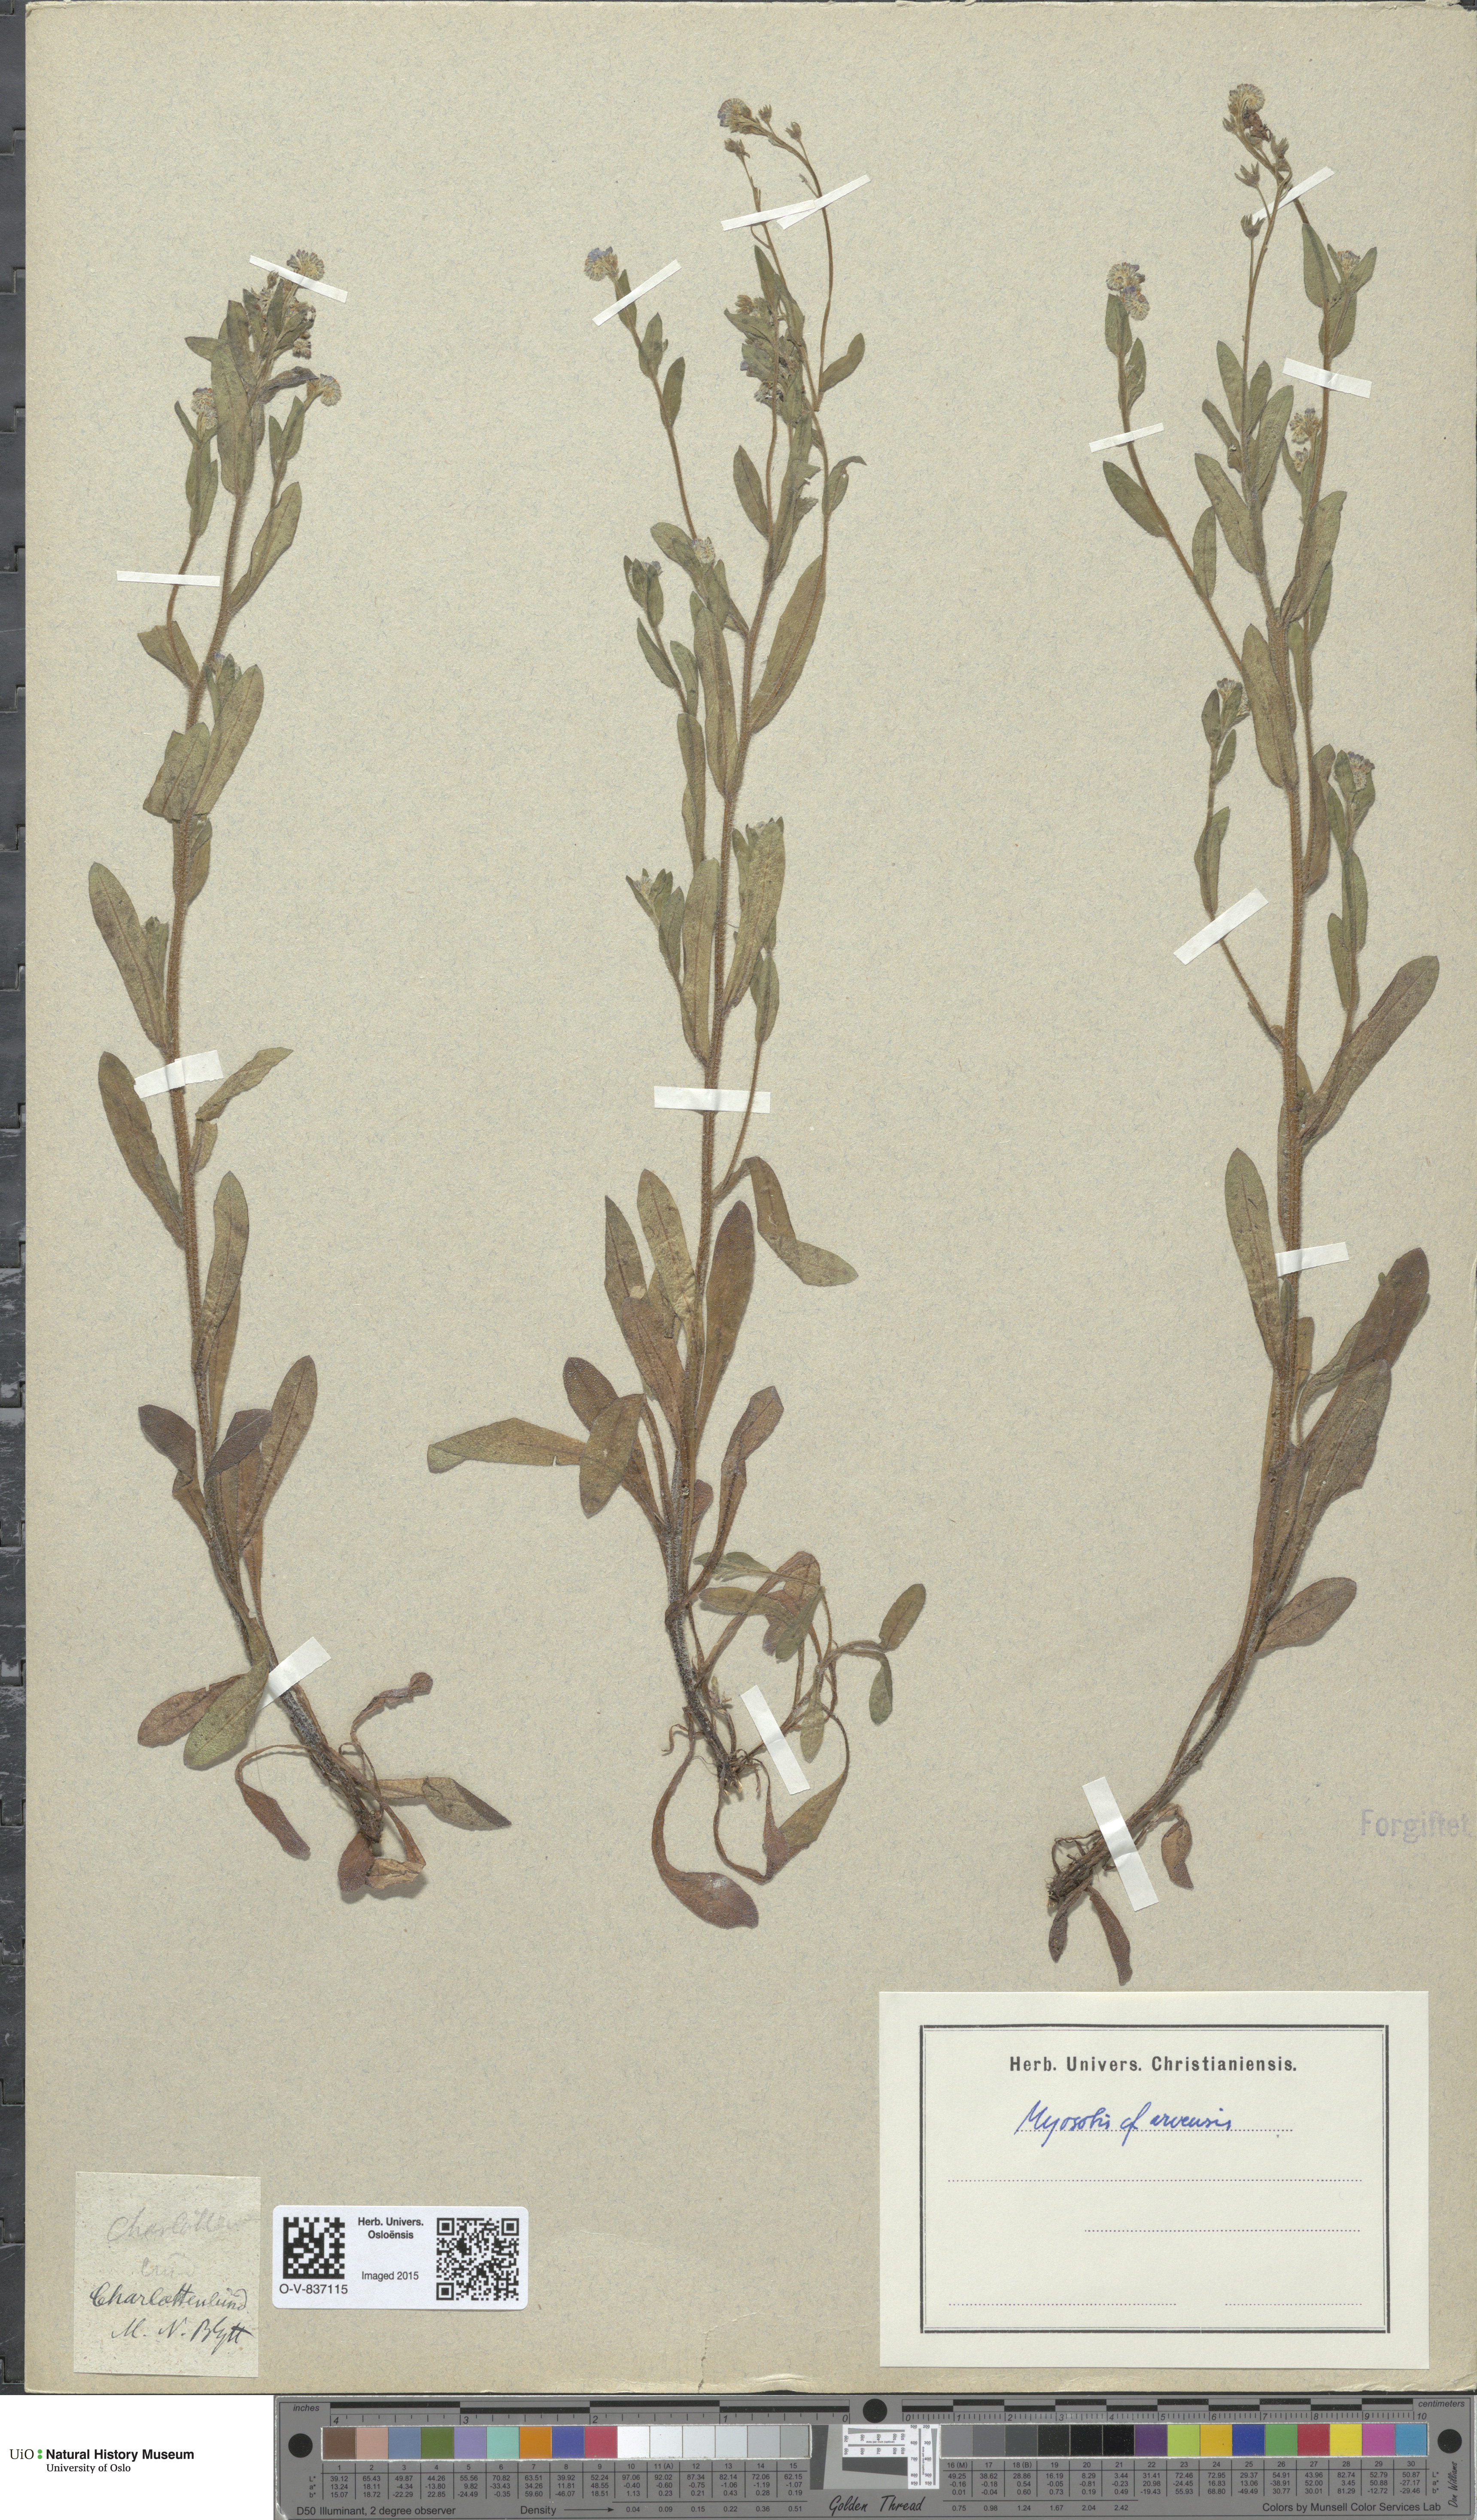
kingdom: Plantae
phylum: Tracheophyta
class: Magnoliopsida
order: Boraginales
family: Boraginaceae
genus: Myosotis
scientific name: Myosotis arvensis
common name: Field forget-me-not
